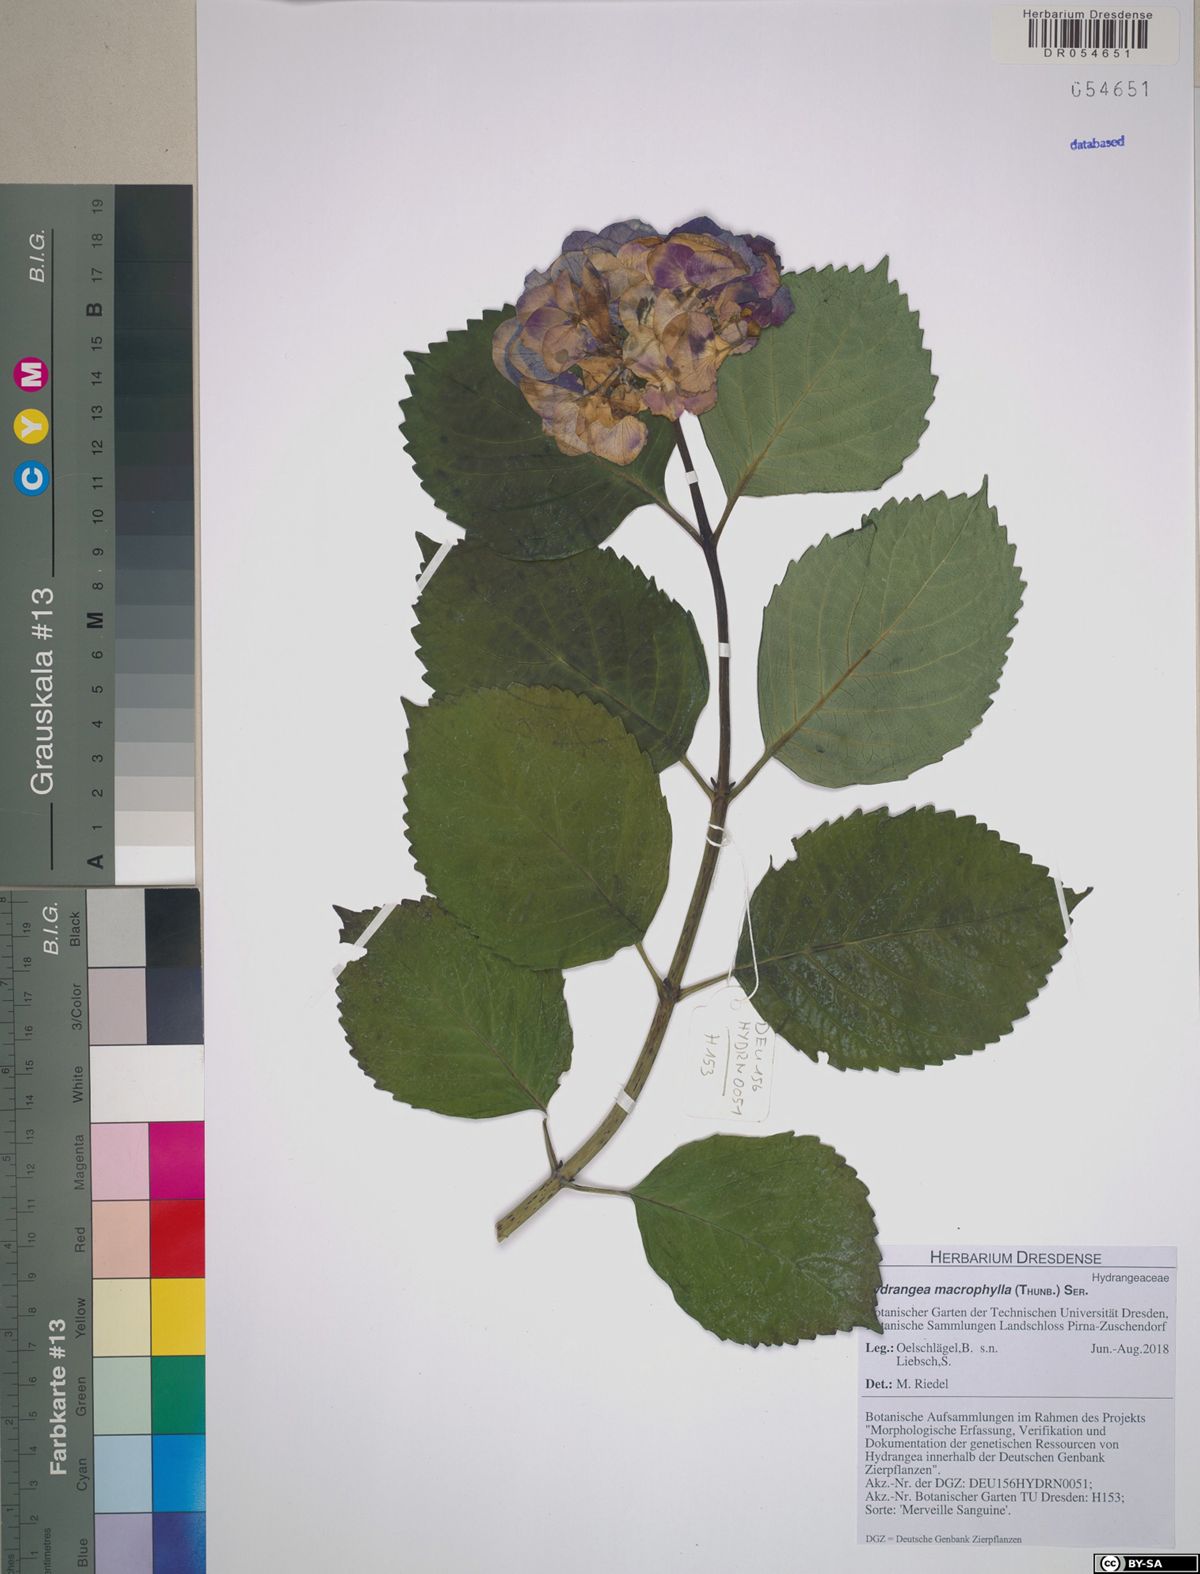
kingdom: Plantae
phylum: Tracheophyta
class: Magnoliopsida
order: Cornales
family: Hydrangeaceae
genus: Hydrangea
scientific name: Hydrangea macrophylla
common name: Hydrangea
